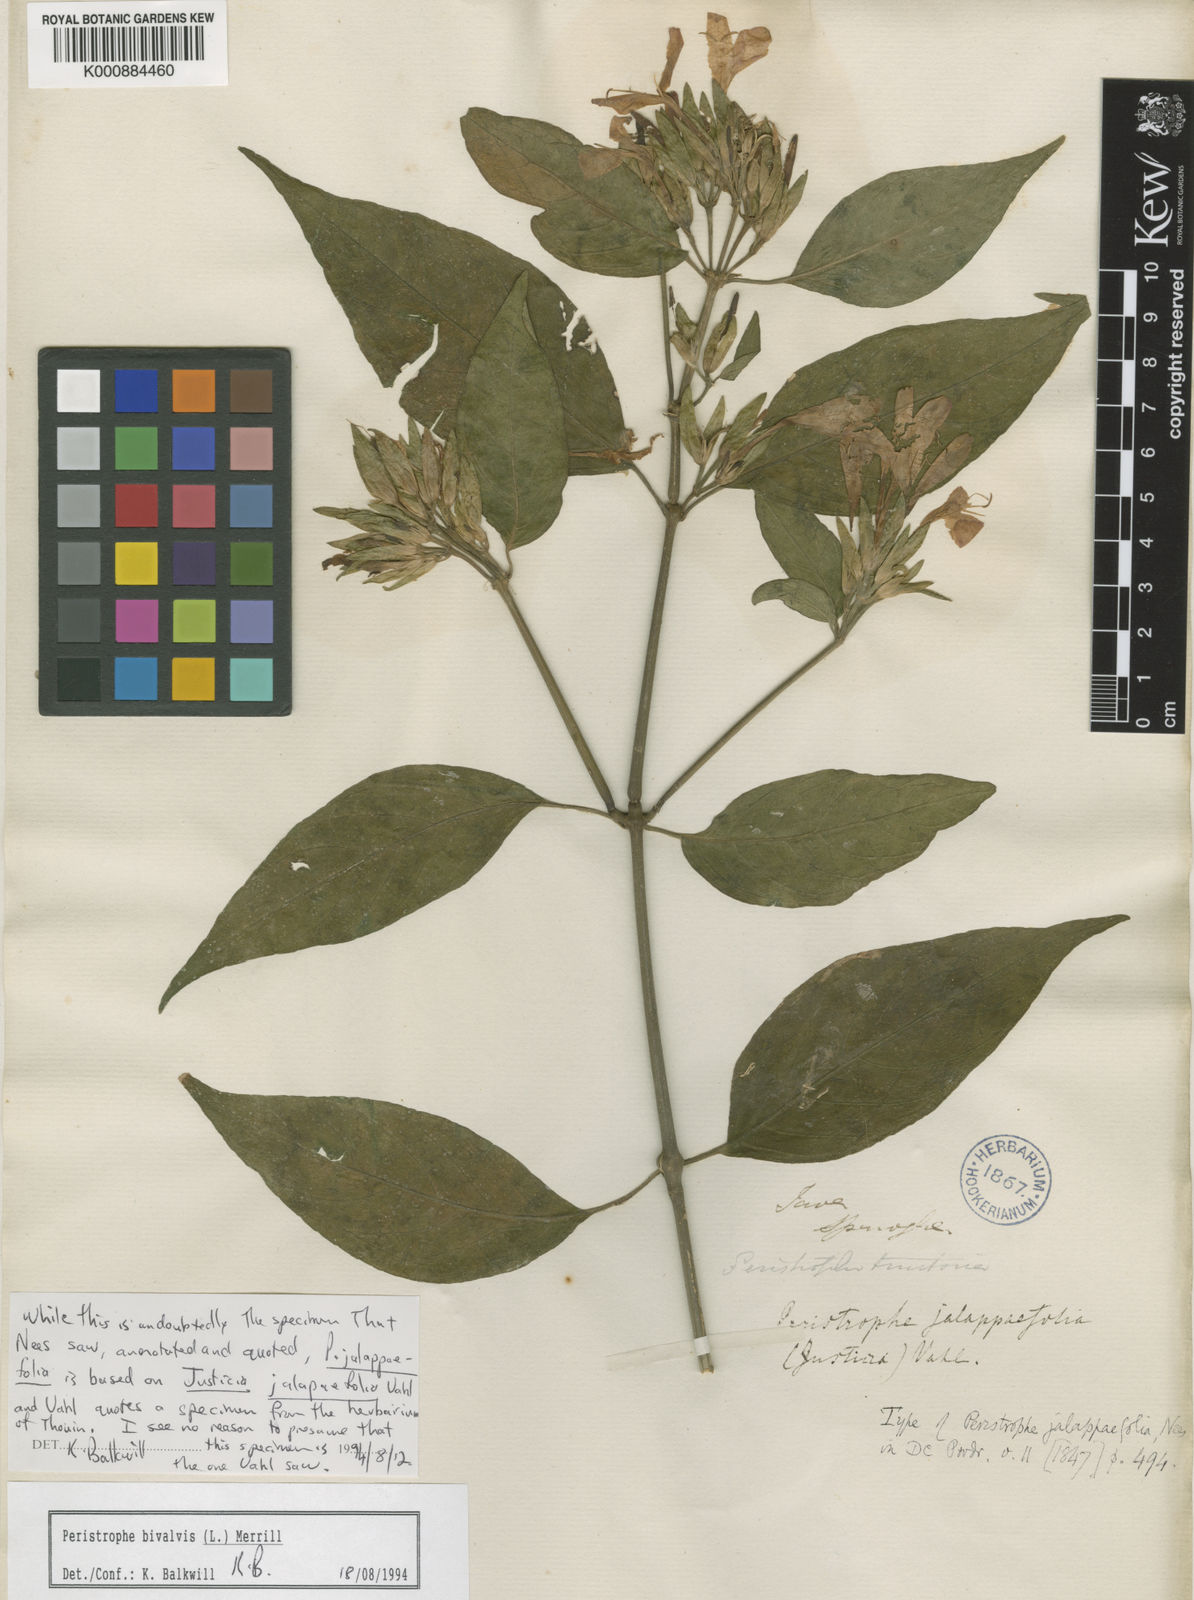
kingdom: Plantae
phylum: Tracheophyta
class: Magnoliopsida
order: Lamiales
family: Acanthaceae
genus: Dicliptera
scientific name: Dicliptera
